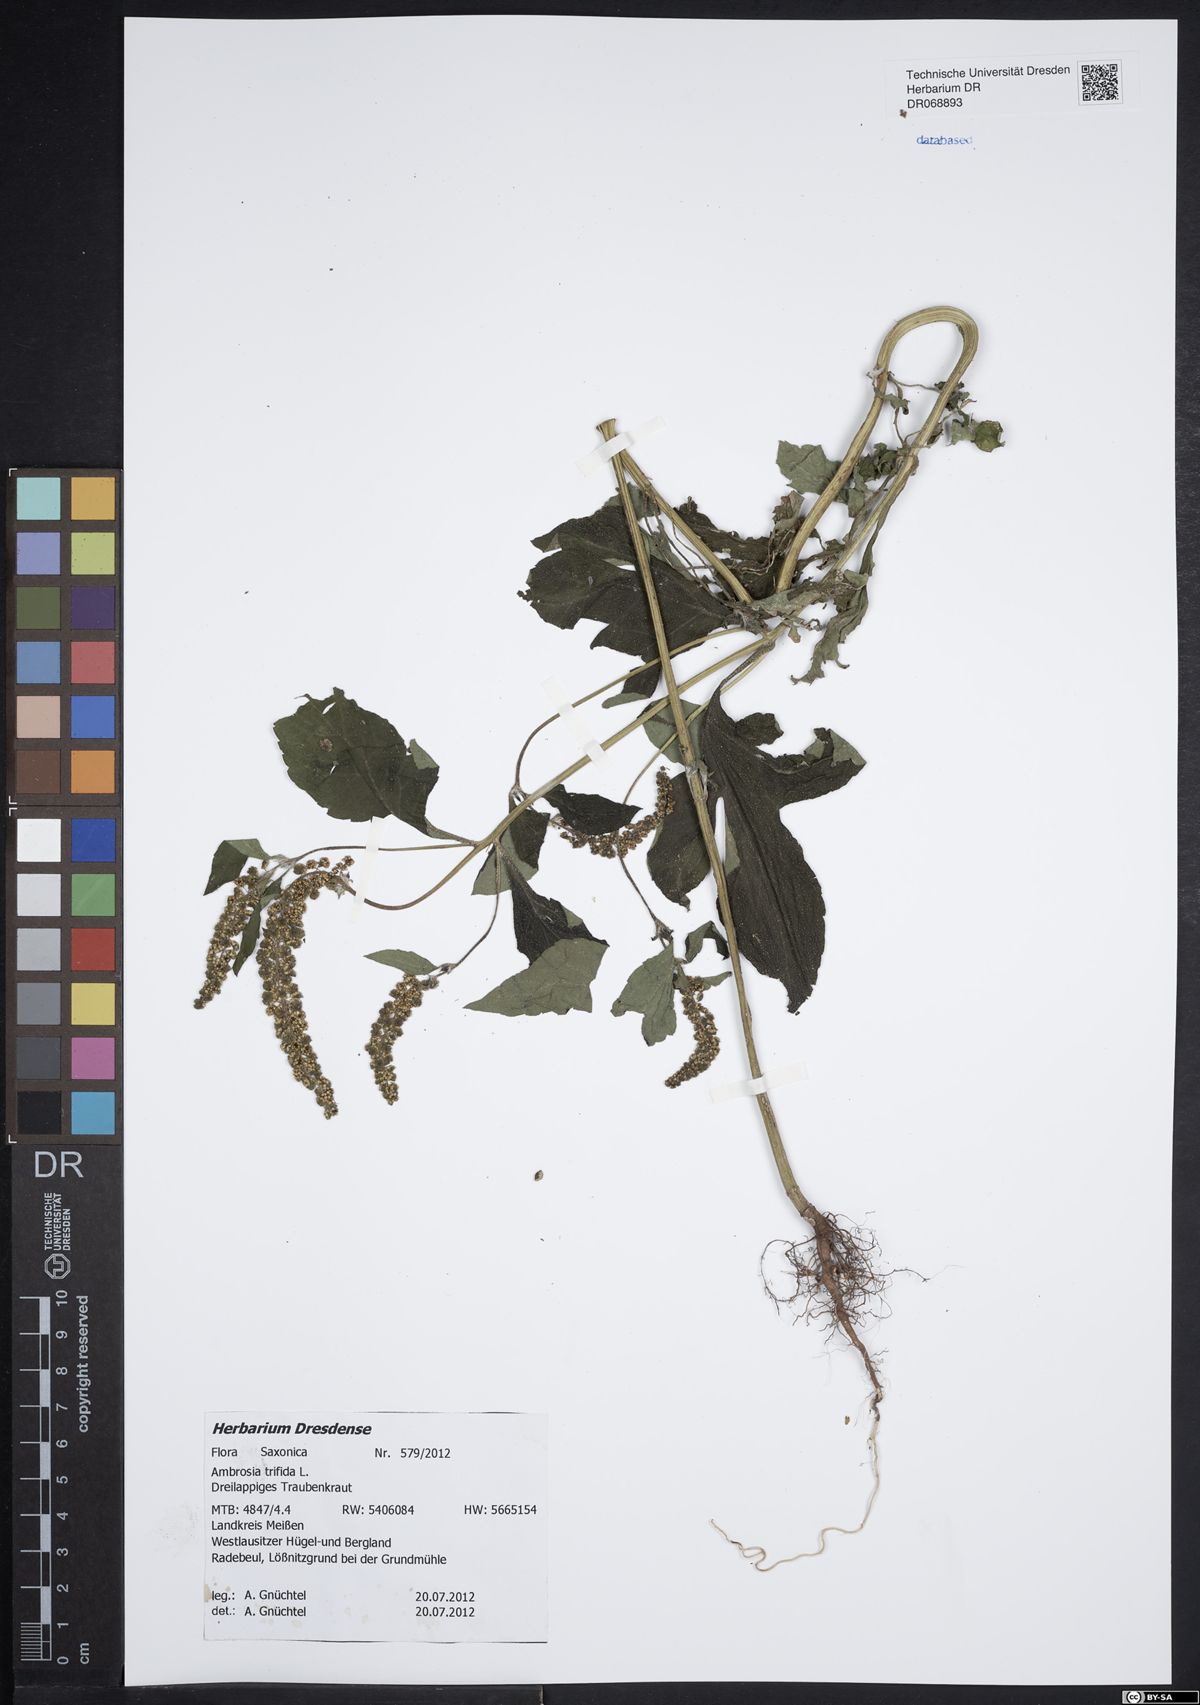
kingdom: Plantae
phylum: Tracheophyta
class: Magnoliopsida
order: Asterales
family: Asteraceae
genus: Ambrosia
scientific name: Ambrosia trifida
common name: Giant ragweed
